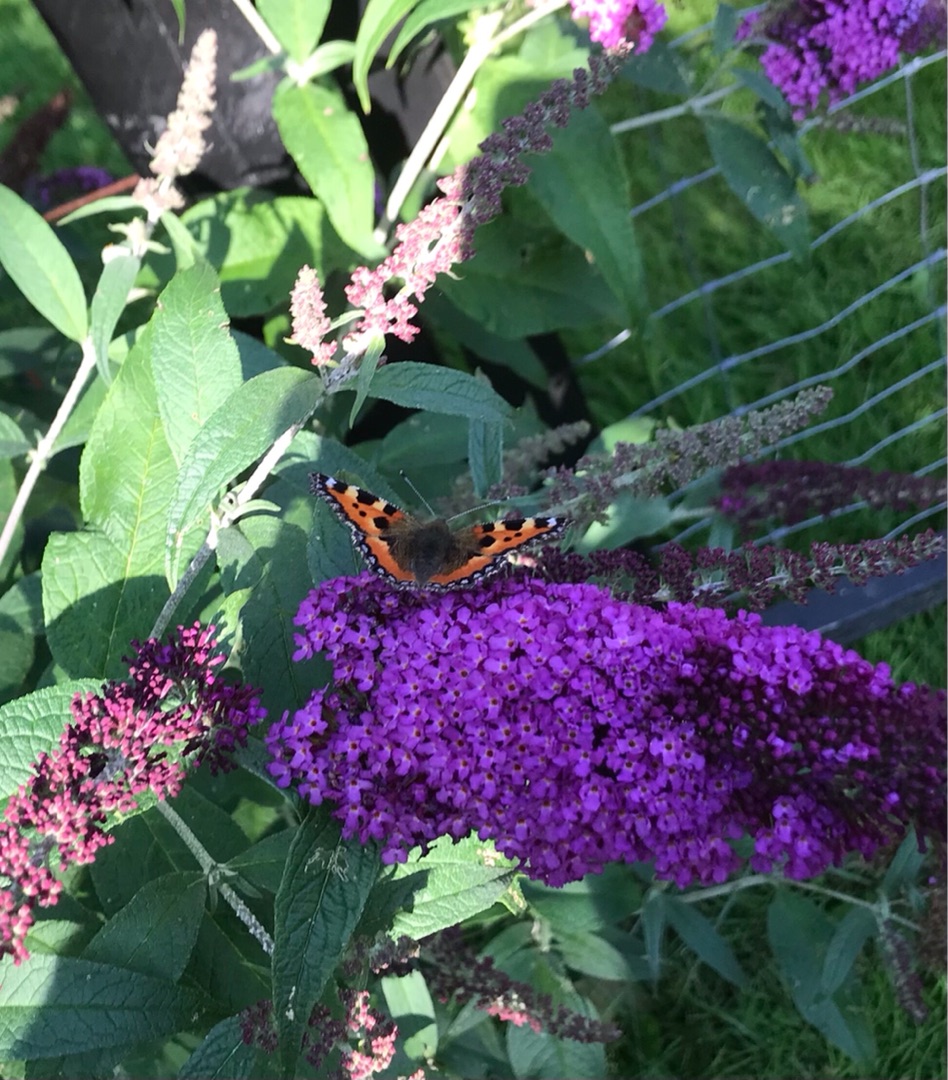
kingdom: Animalia
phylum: Arthropoda
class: Insecta
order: Lepidoptera
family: Nymphalidae
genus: Aglais
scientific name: Aglais urticae
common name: Nældens takvinge
